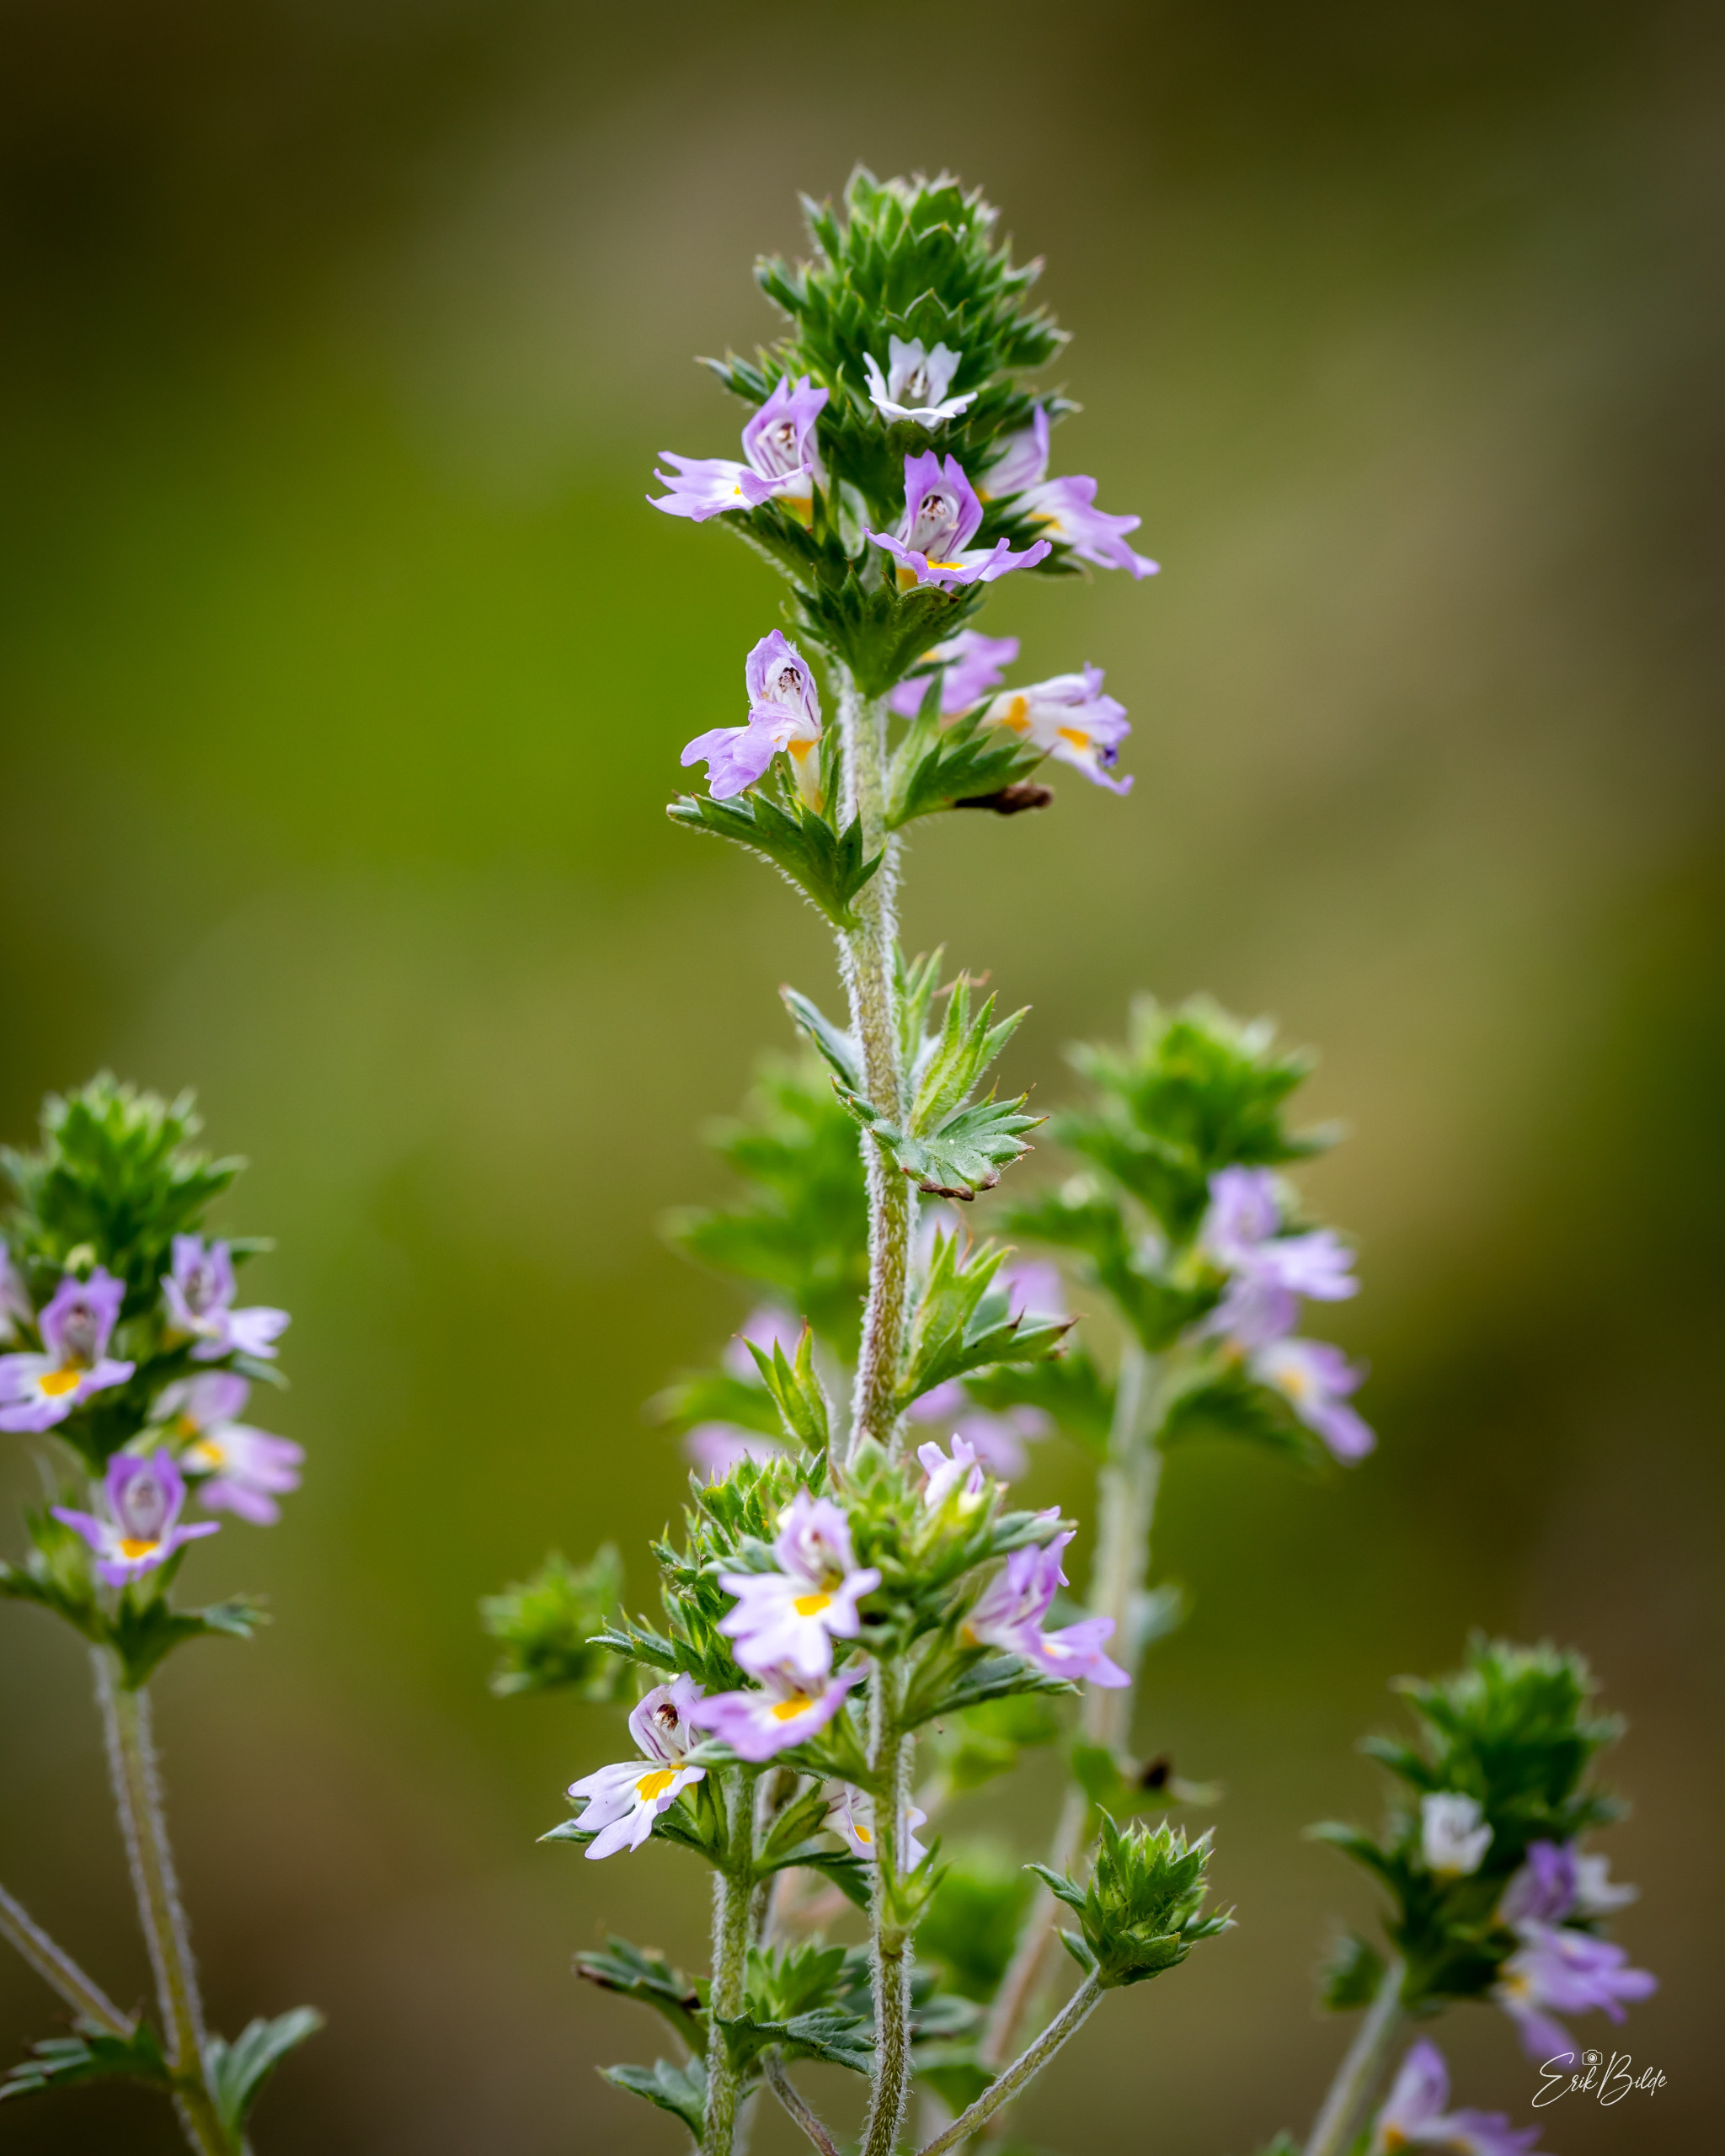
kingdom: Plantae
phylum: Tracheophyta
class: Magnoliopsida
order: Lamiales
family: Orobanchaceae
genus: Euphrasia
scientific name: Euphrasia nemorosa
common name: Kort øjentrøst
